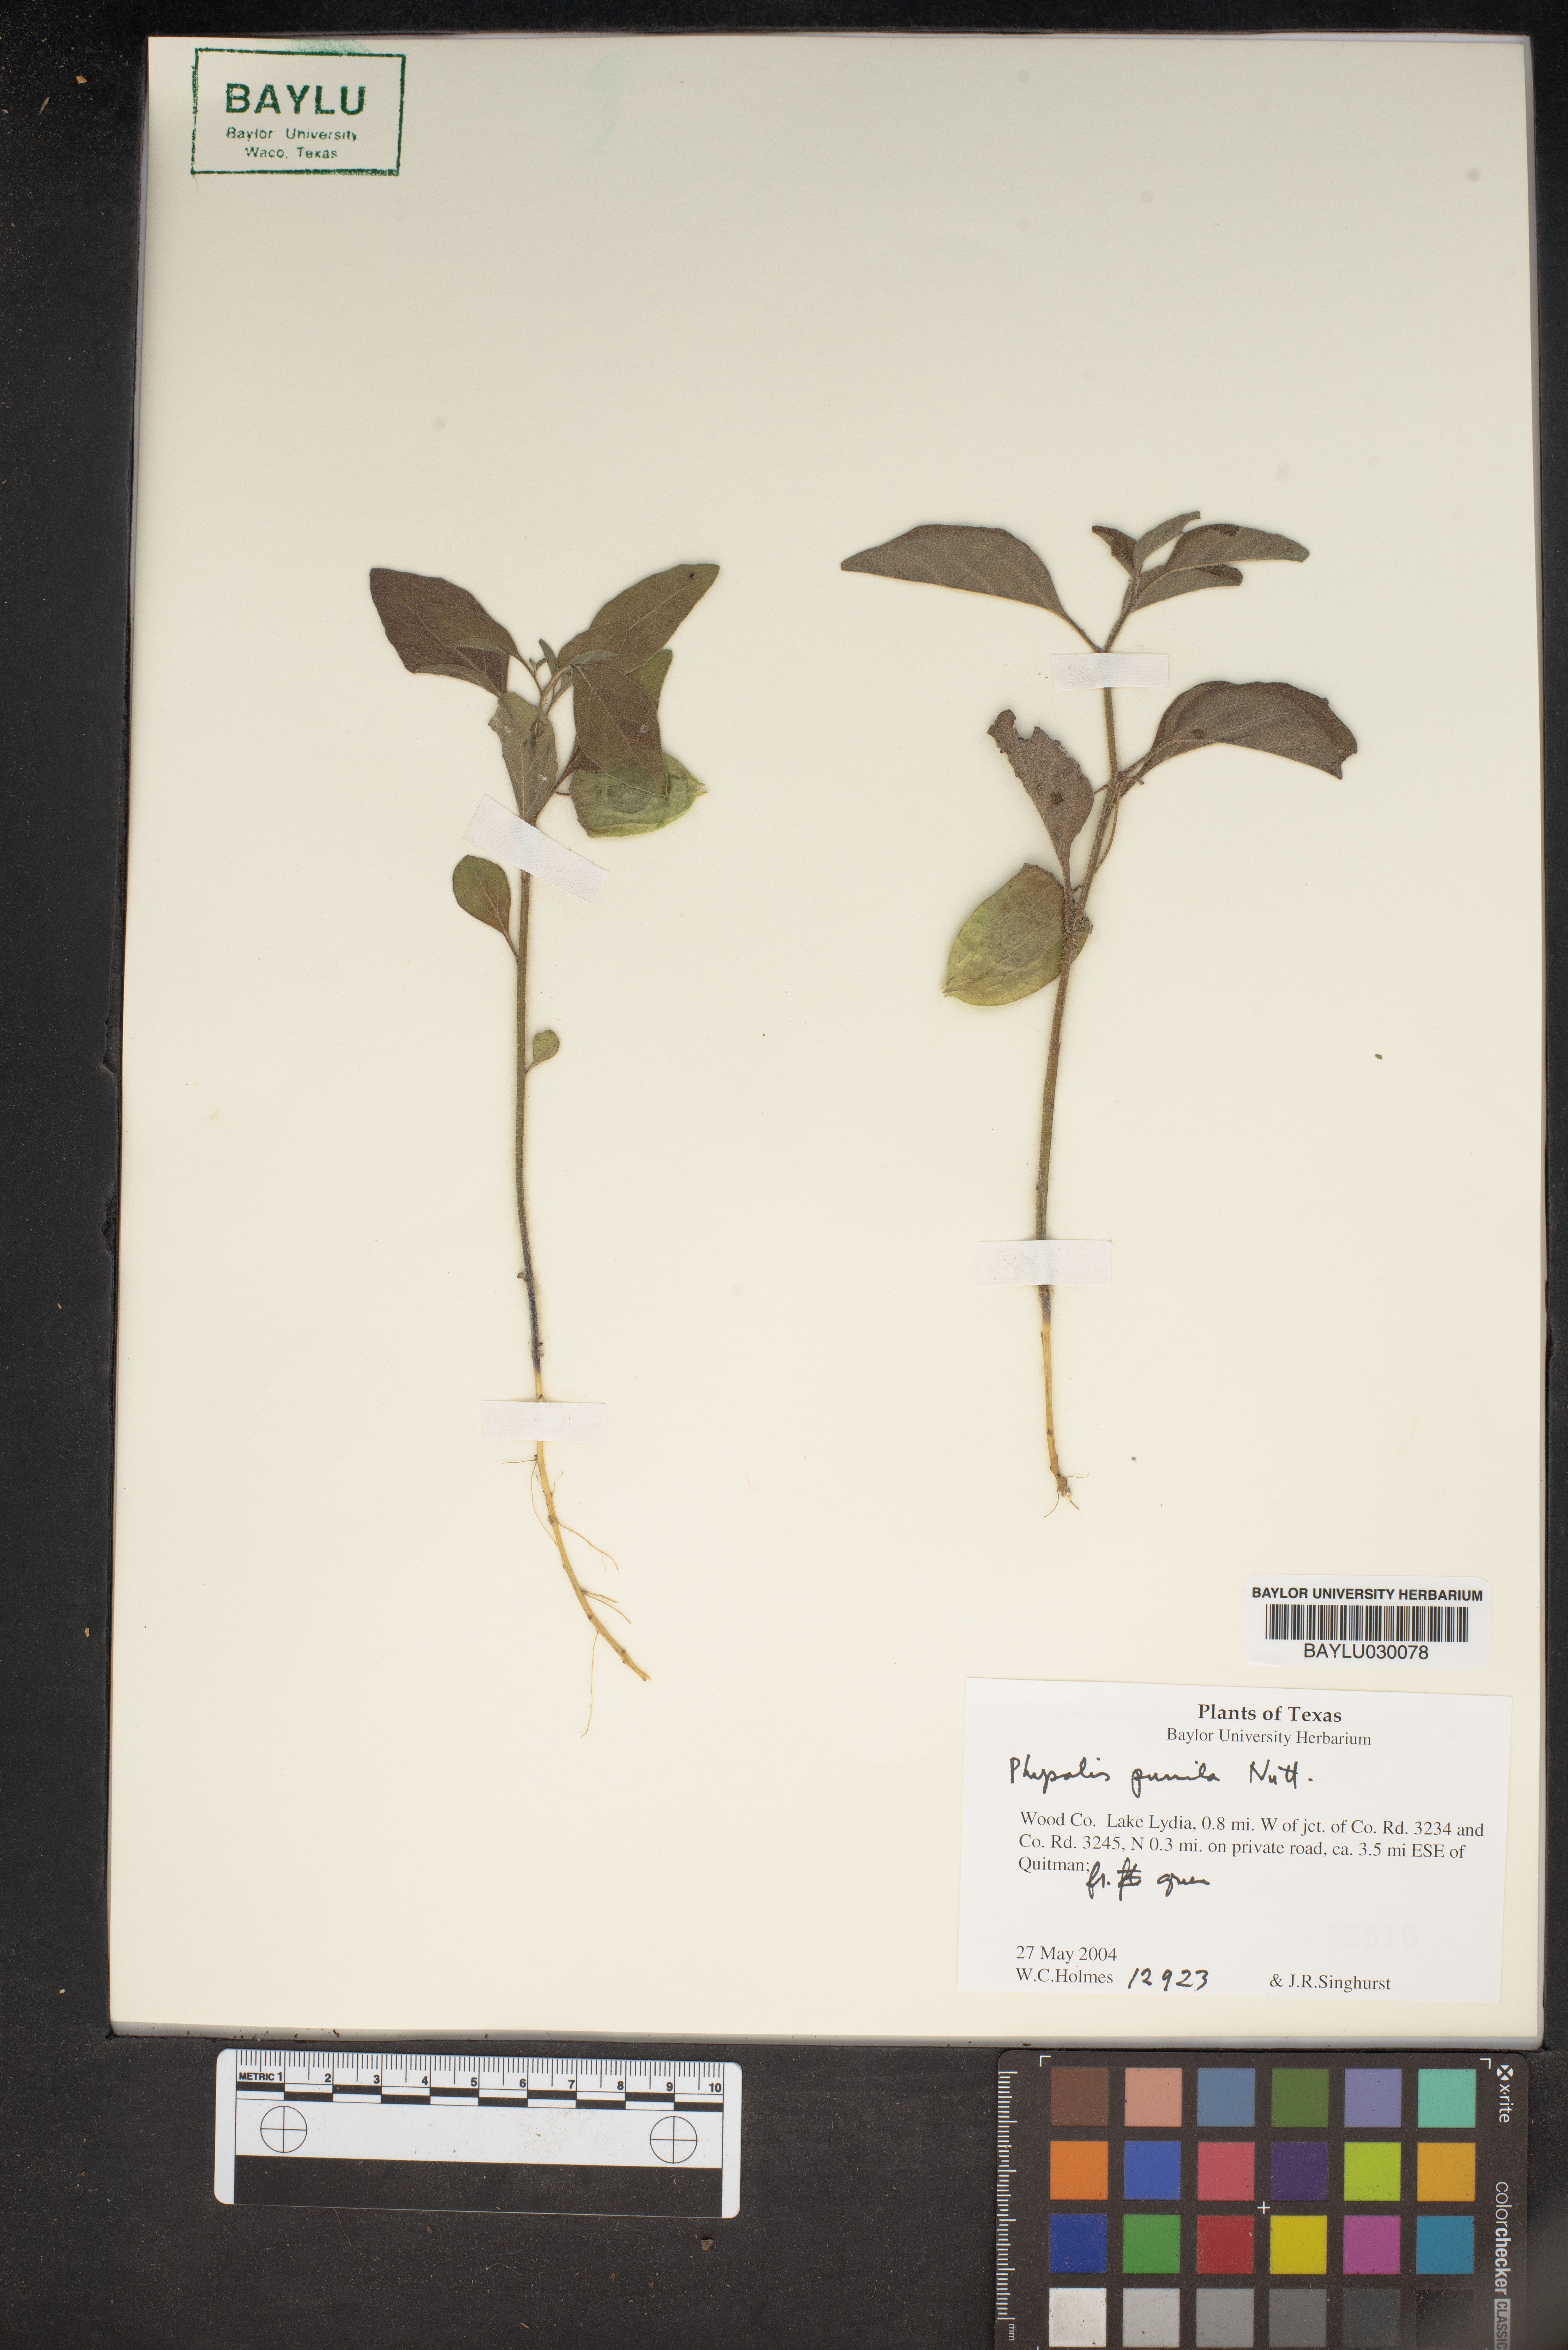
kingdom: Plantae
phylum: Tracheophyta
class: Magnoliopsida
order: Solanales
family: Solanaceae
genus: Physalis
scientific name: Physalis pumila
